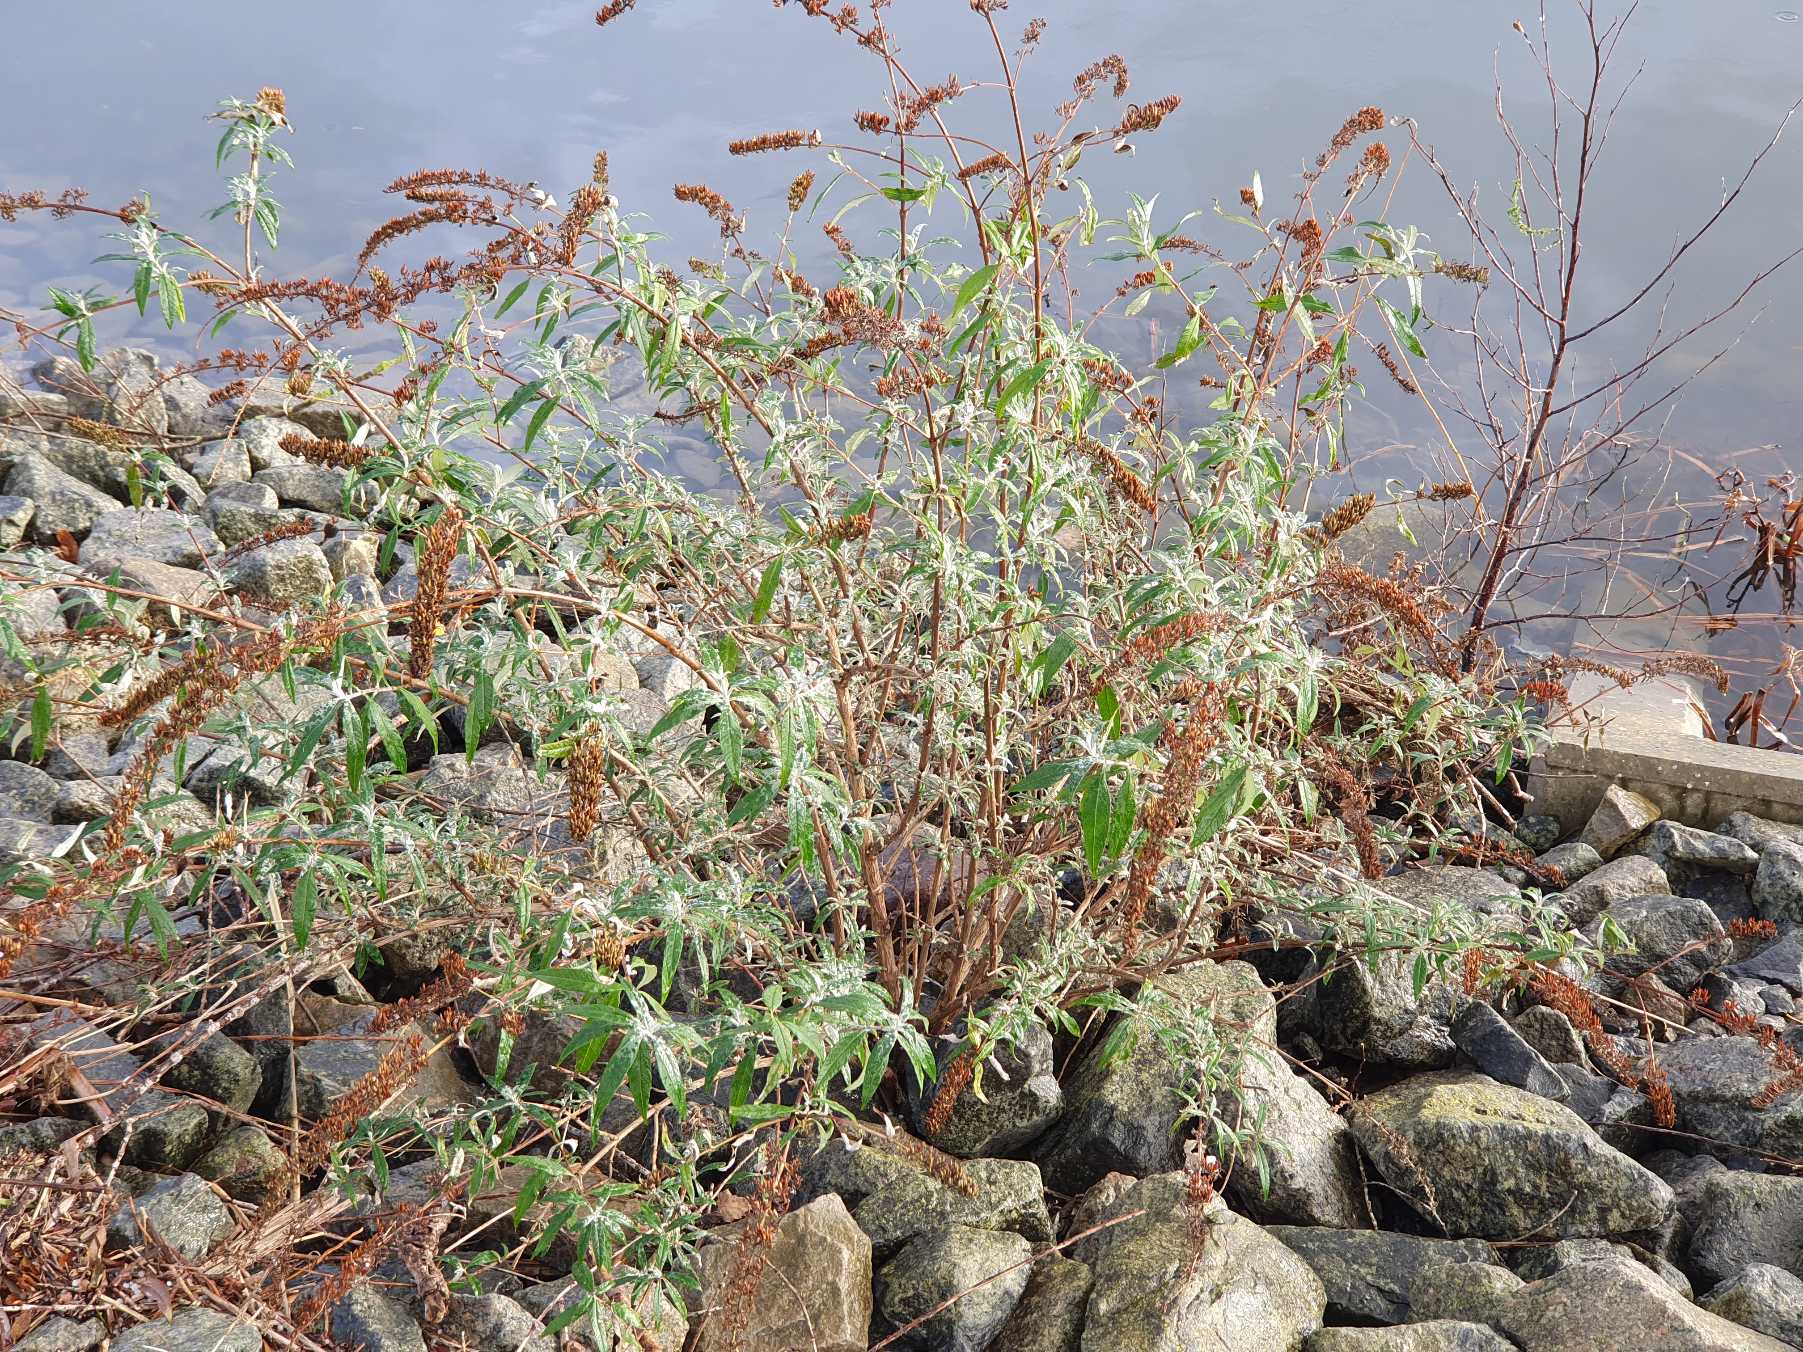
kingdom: Plantae
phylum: Tracheophyta
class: Magnoliopsida
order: Lamiales
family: Scrophulariaceae
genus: Buddleja
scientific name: Buddleja davidii
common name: Sommerfuglebusk
